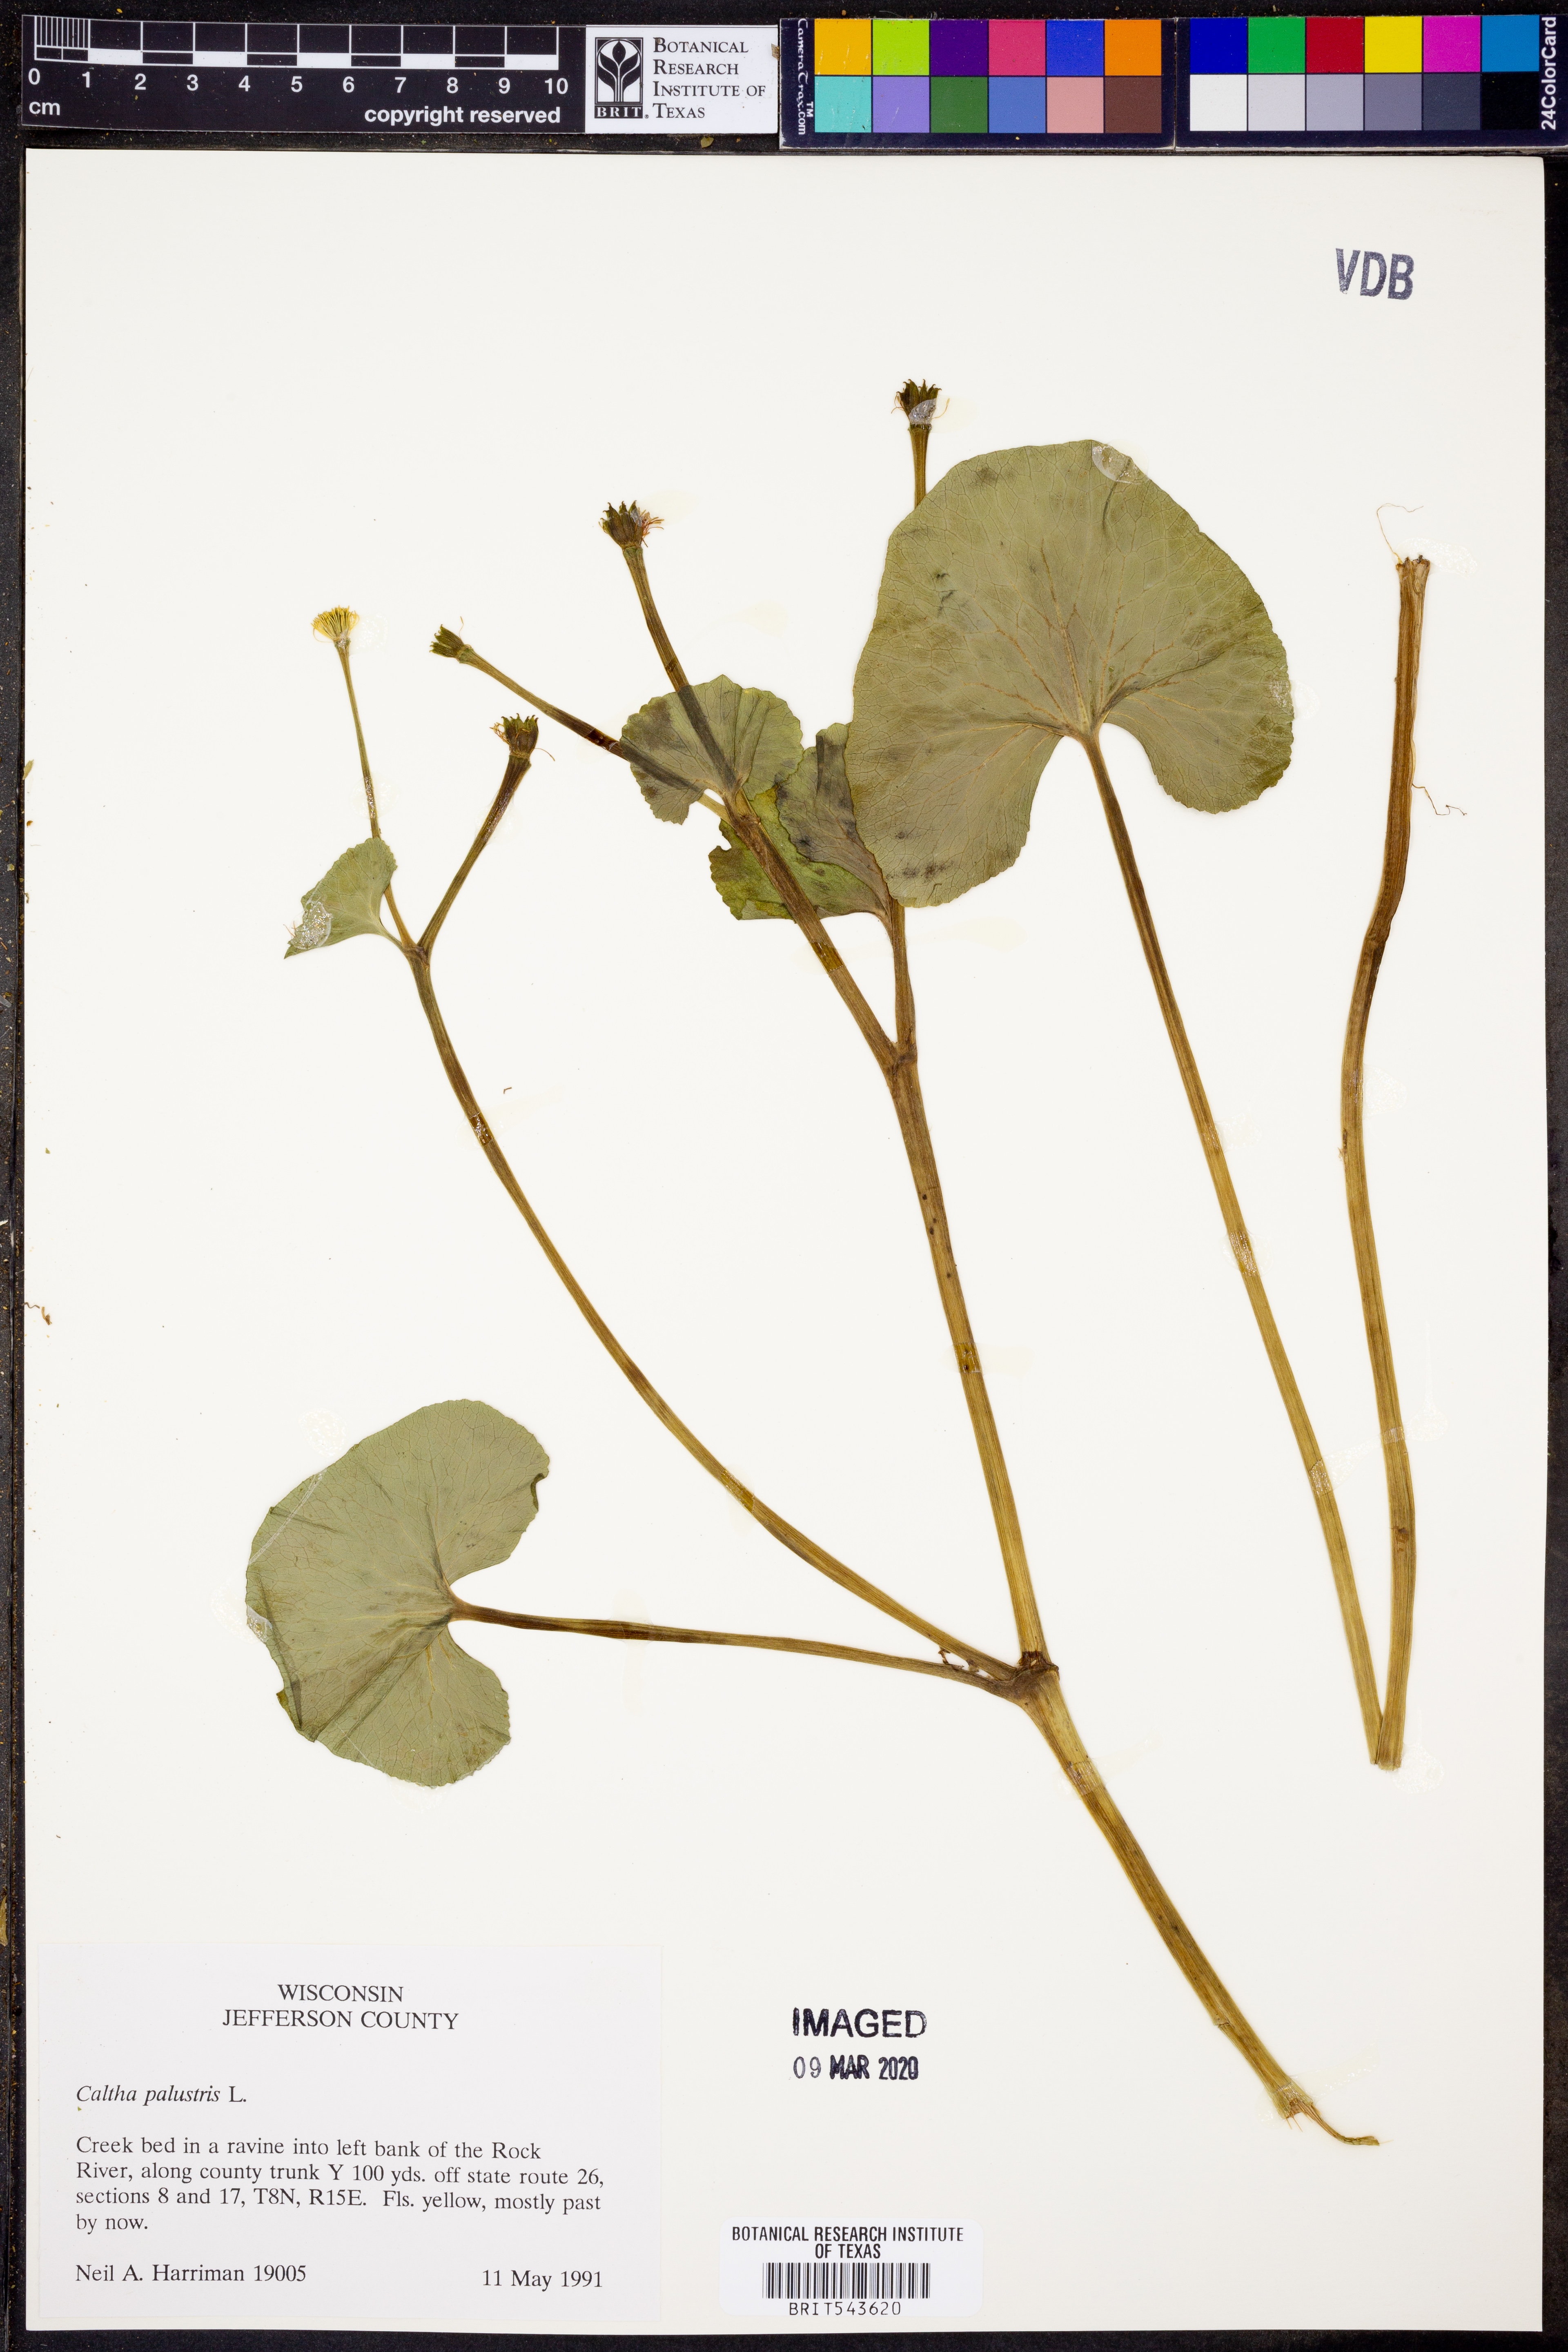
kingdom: Plantae
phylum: Tracheophyta
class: Magnoliopsida
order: Ranunculales
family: Ranunculaceae
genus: Caltha
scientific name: Caltha palustris
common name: Marsh marigold
